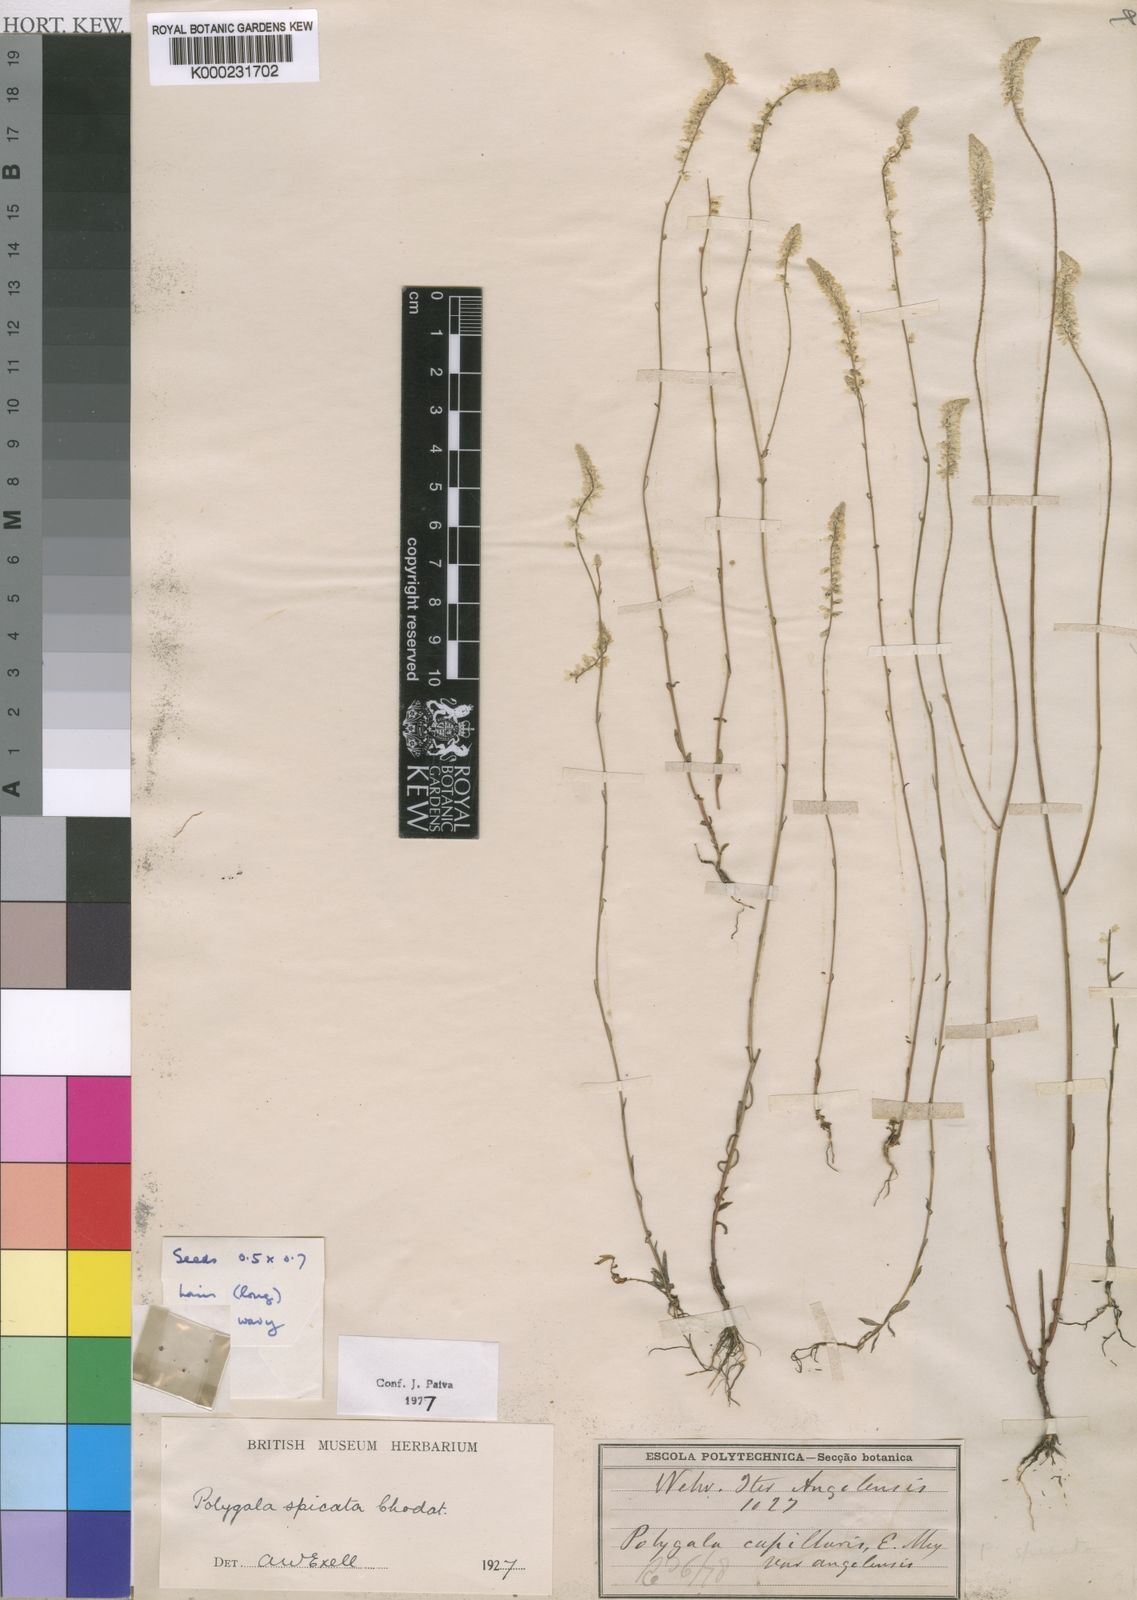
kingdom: Plantae
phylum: Tracheophyta
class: Magnoliopsida
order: Fabales
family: Polygalaceae
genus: Polygala
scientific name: Polygala spicata
